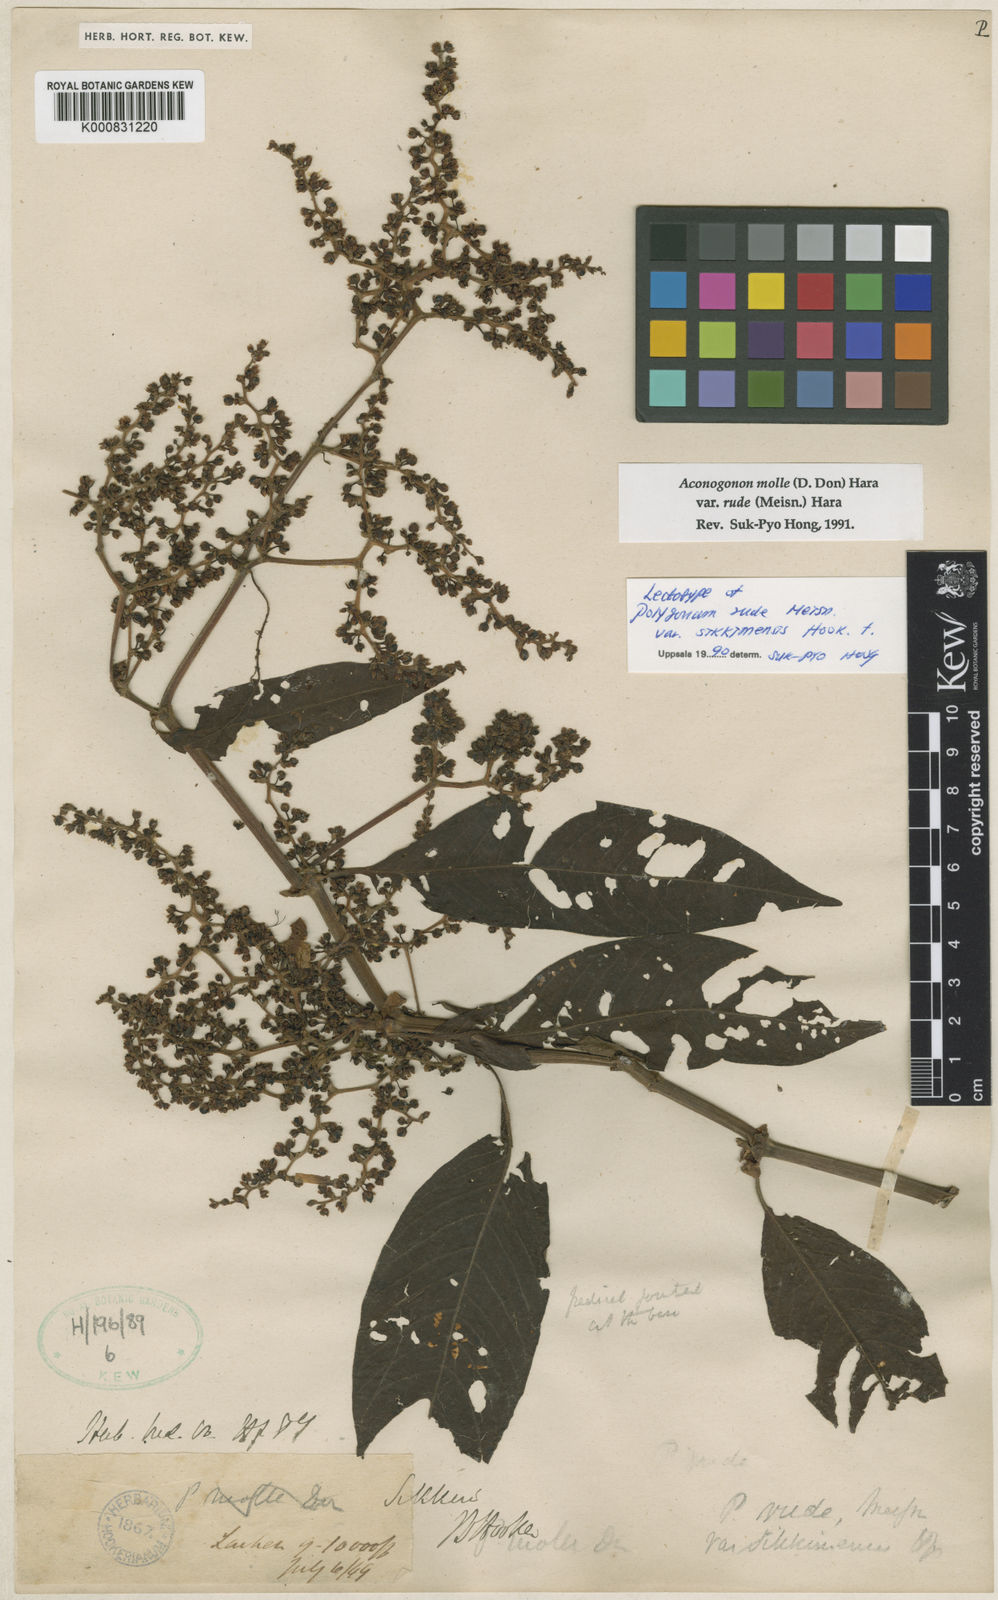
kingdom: Plantae
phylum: Tracheophyta
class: Magnoliopsida
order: Caryophyllales
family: Polygonaceae
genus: Koenigia
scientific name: Koenigia mollis
